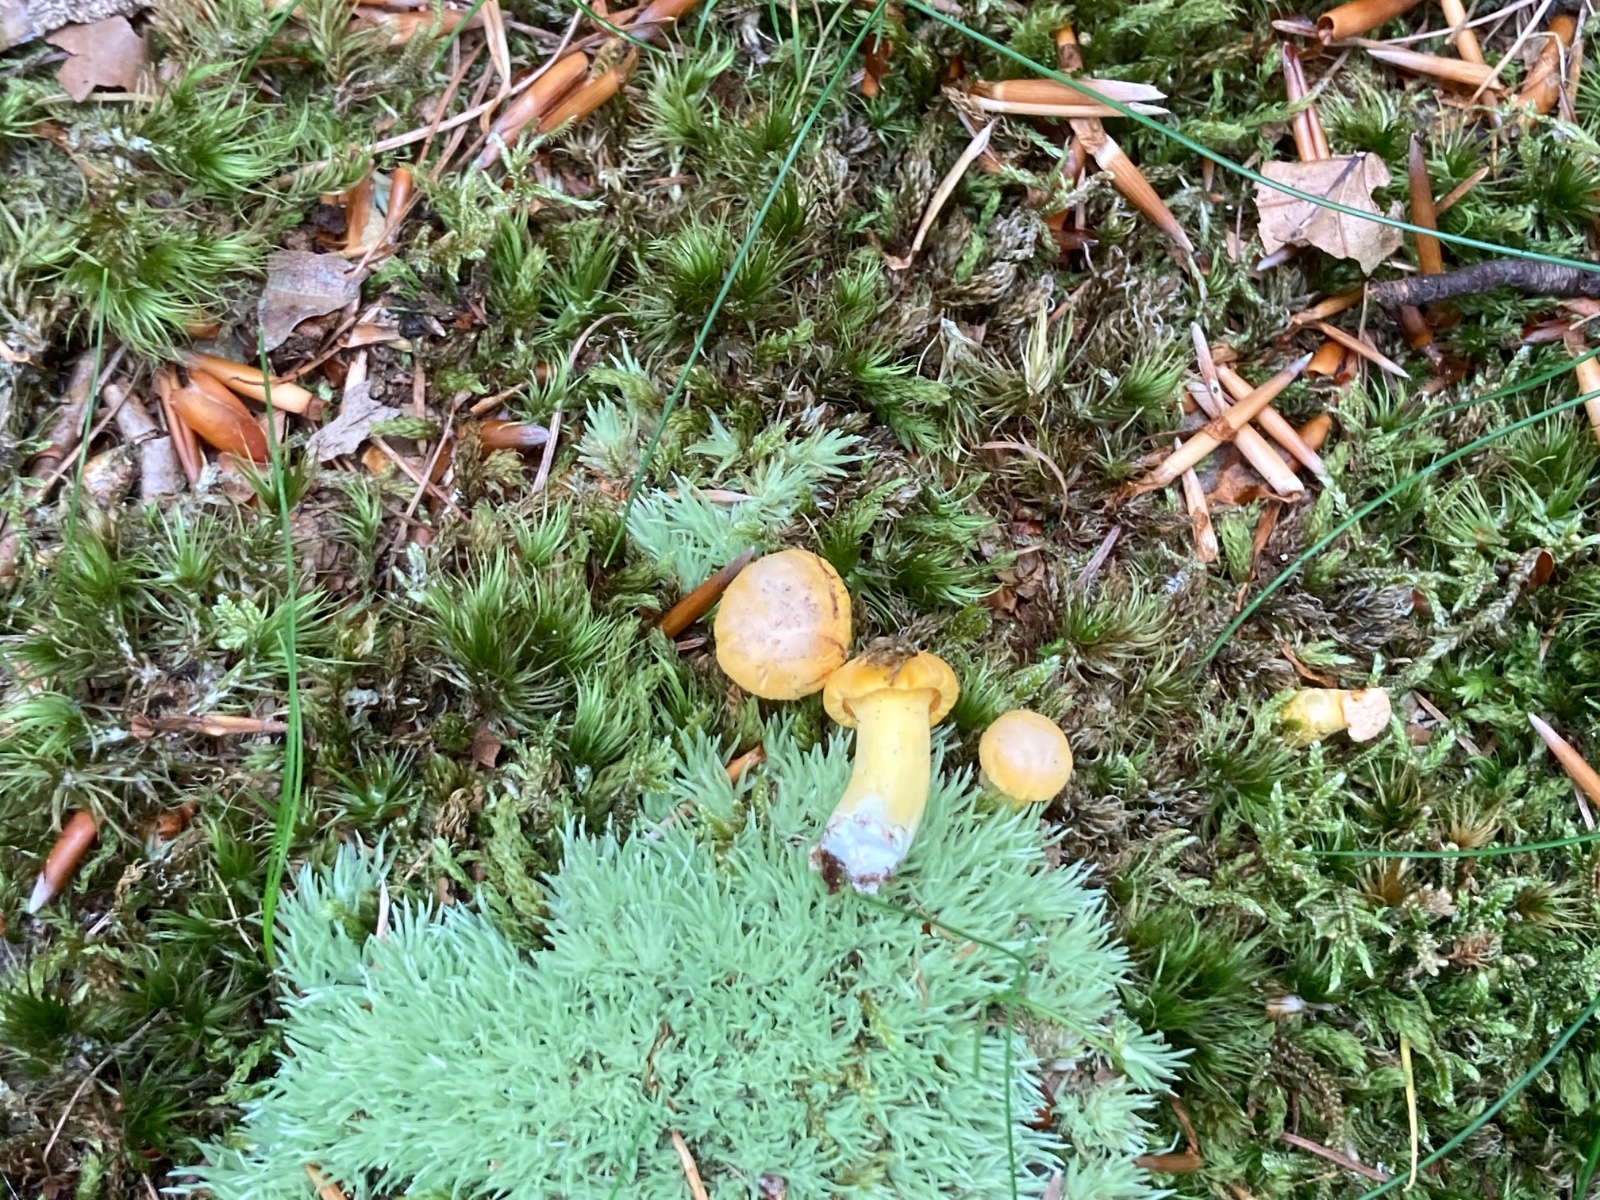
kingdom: Fungi
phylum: Basidiomycota
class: Agaricomycetes
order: Cantharellales
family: Hydnaceae
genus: Cantharellus
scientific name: Cantharellus cibarius
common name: almindelig kantarel
